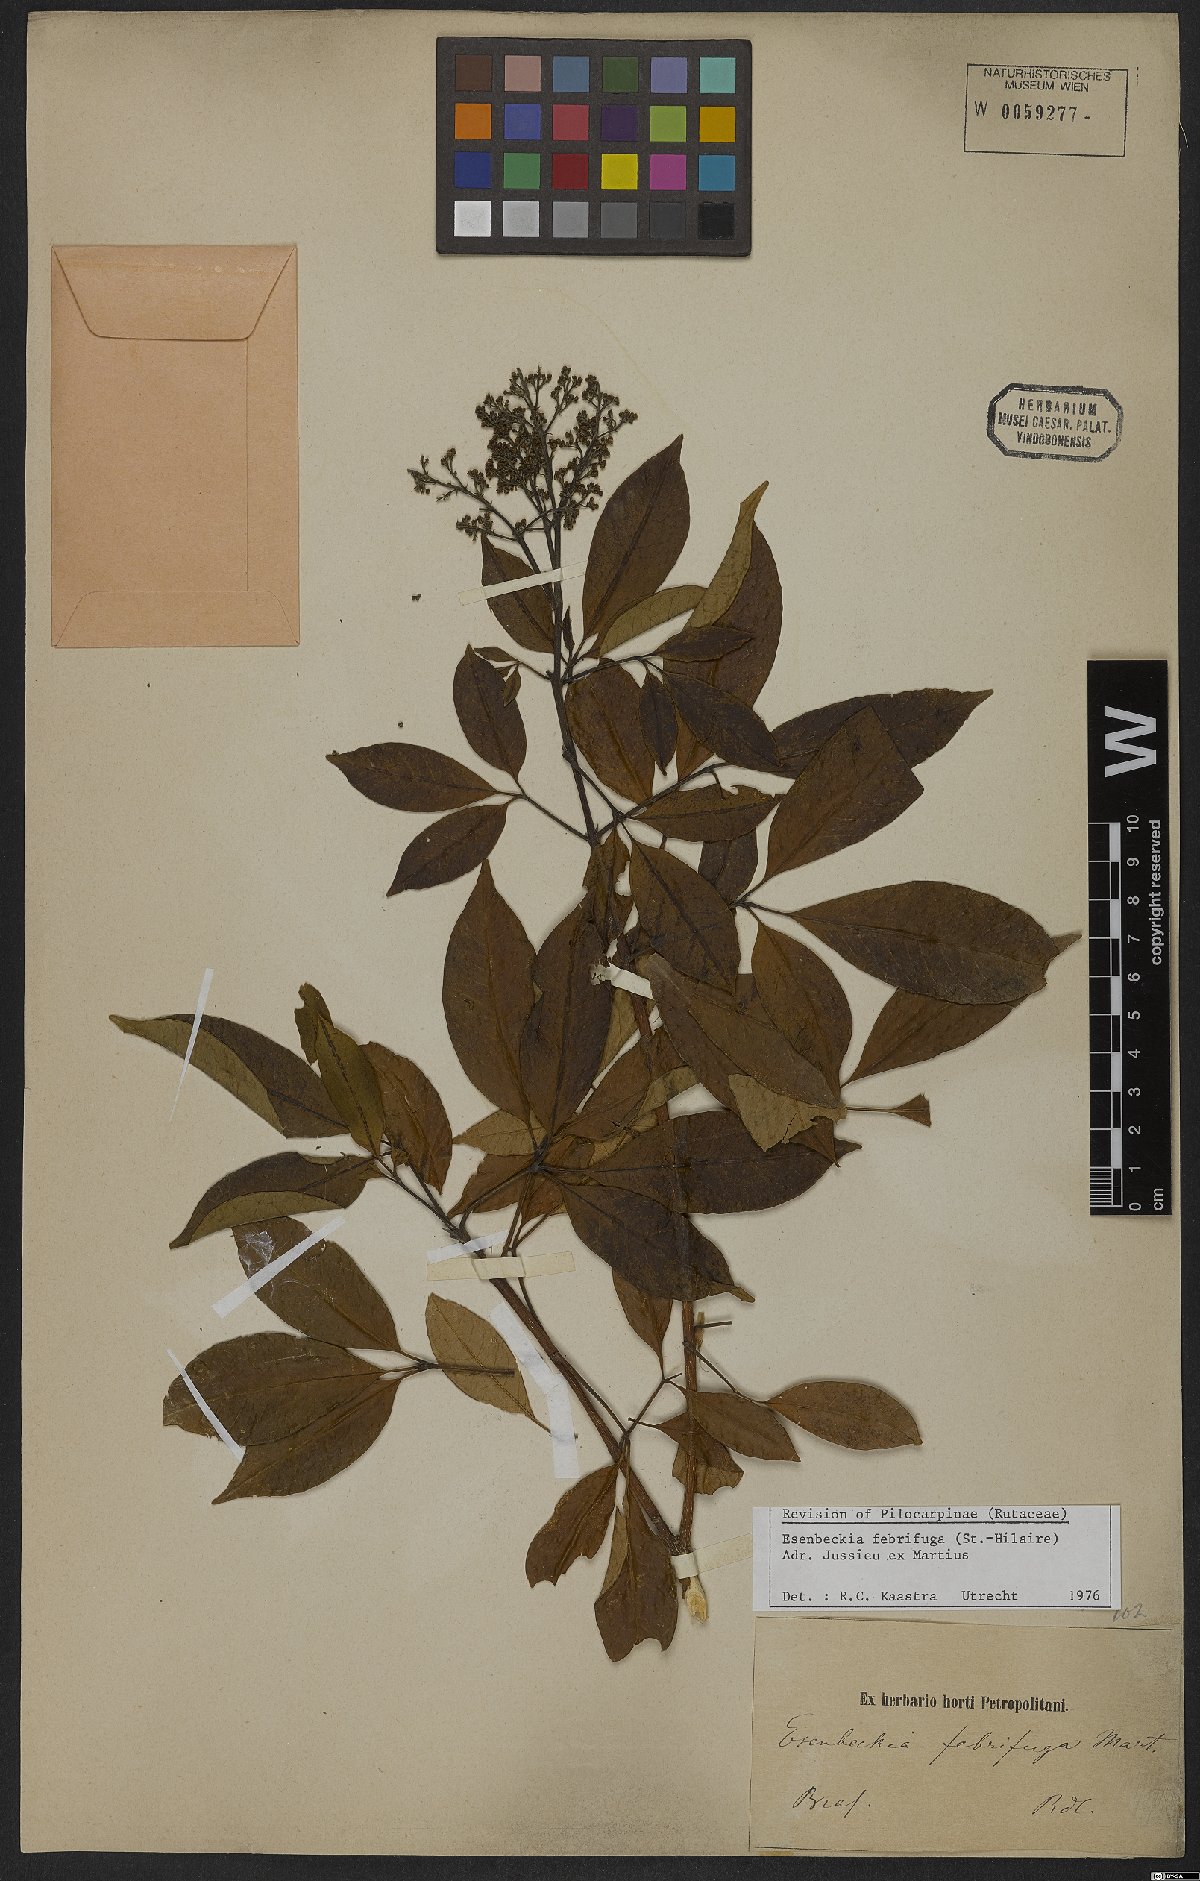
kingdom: Plantae
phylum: Tracheophyta
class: Magnoliopsida
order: Sapindales
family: Rutaceae
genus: Esenbeckia
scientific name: Esenbeckia febrifuga
